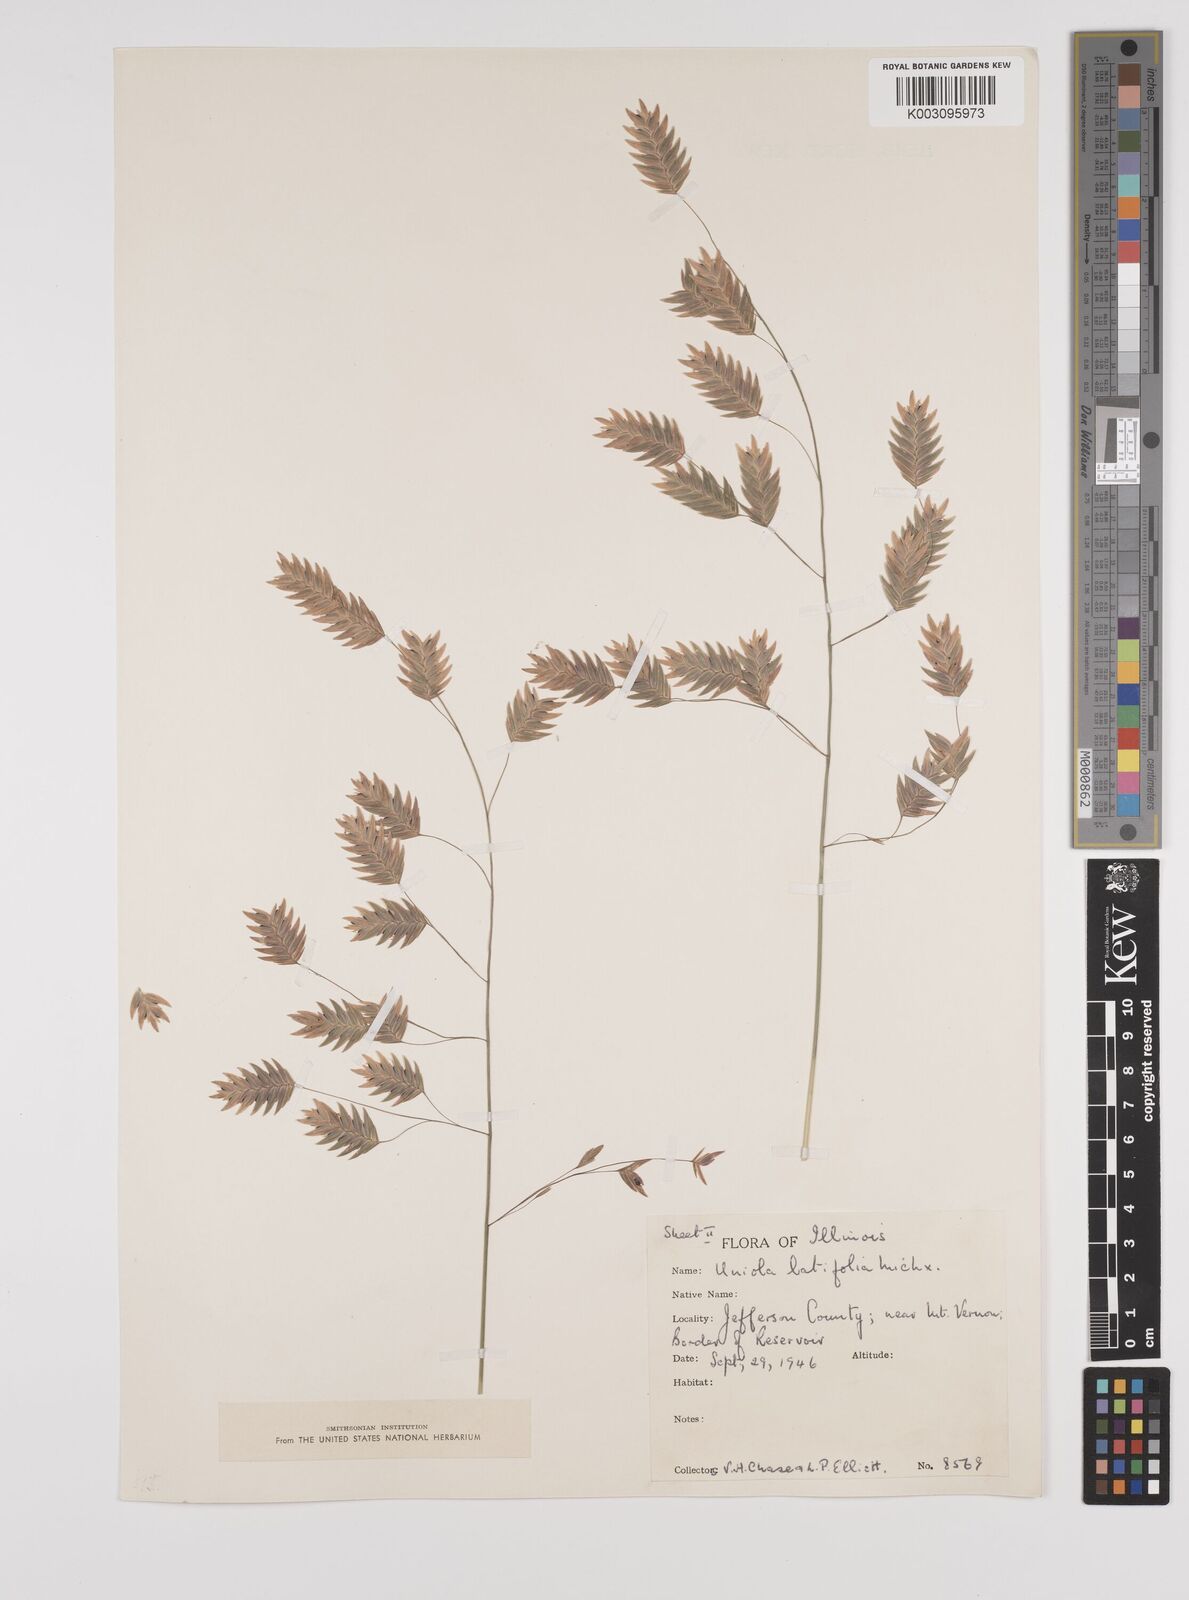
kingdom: Plantae
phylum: Tracheophyta
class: Liliopsida
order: Poales
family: Poaceae
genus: Chasmanthium
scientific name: Chasmanthium latifolium
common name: Broad-leaved chasmanthium
